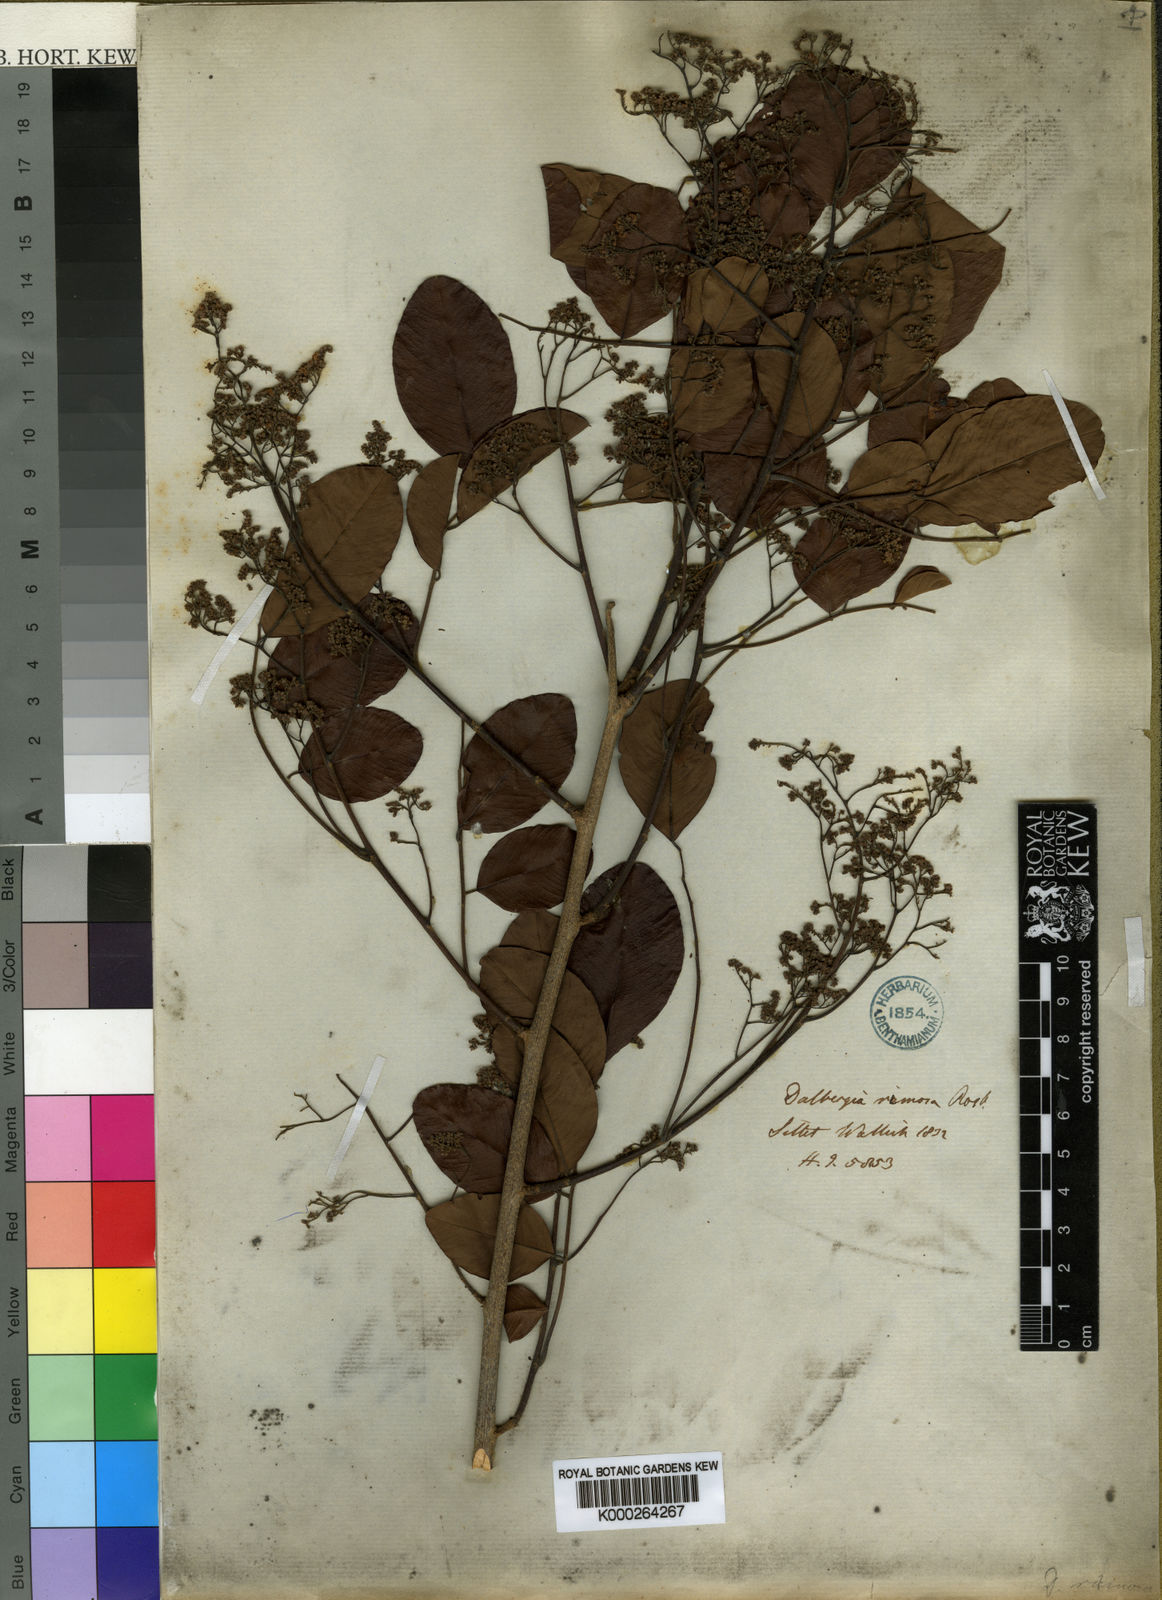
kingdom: Plantae
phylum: Tracheophyta
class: Magnoliopsida
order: Fabales
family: Fabaceae
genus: Dalbergia
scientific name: Dalbergia rimosa
